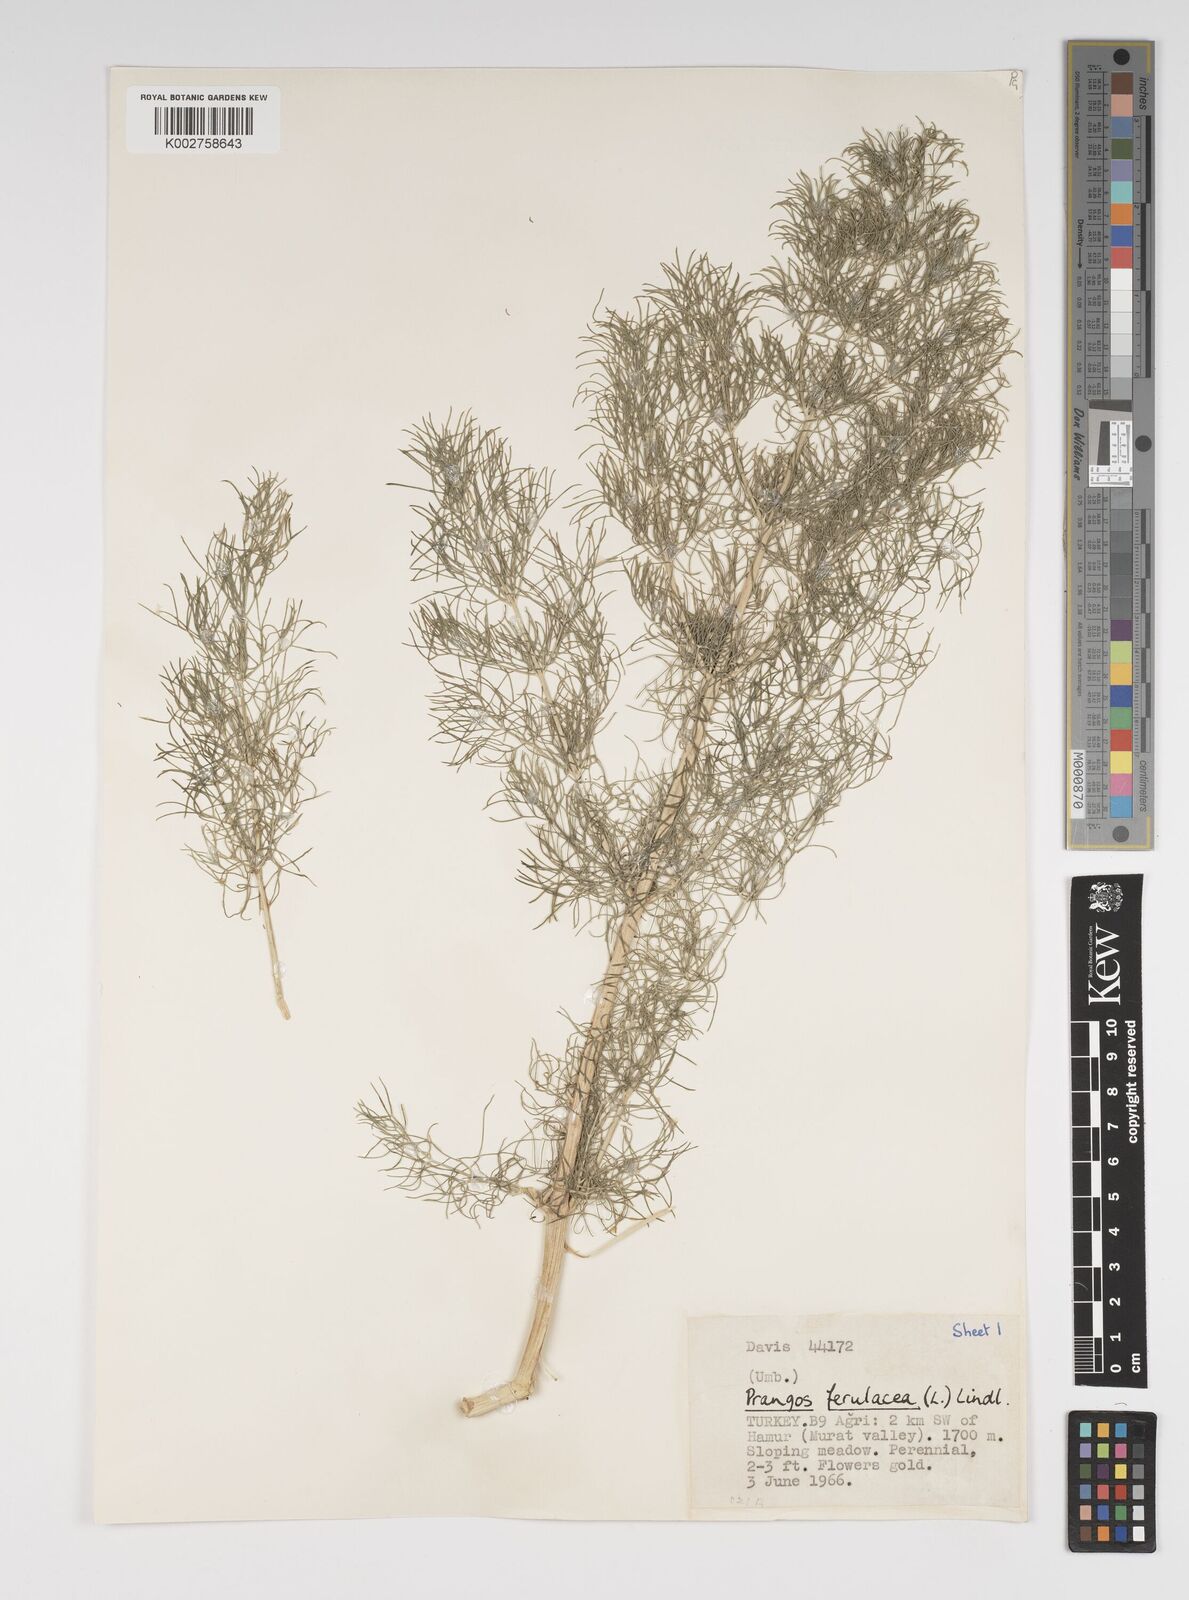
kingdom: Plantae
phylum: Tracheophyta
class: Magnoliopsida
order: Apiales
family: Apiaceae
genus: Prangos
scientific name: Prangos ferulacea
